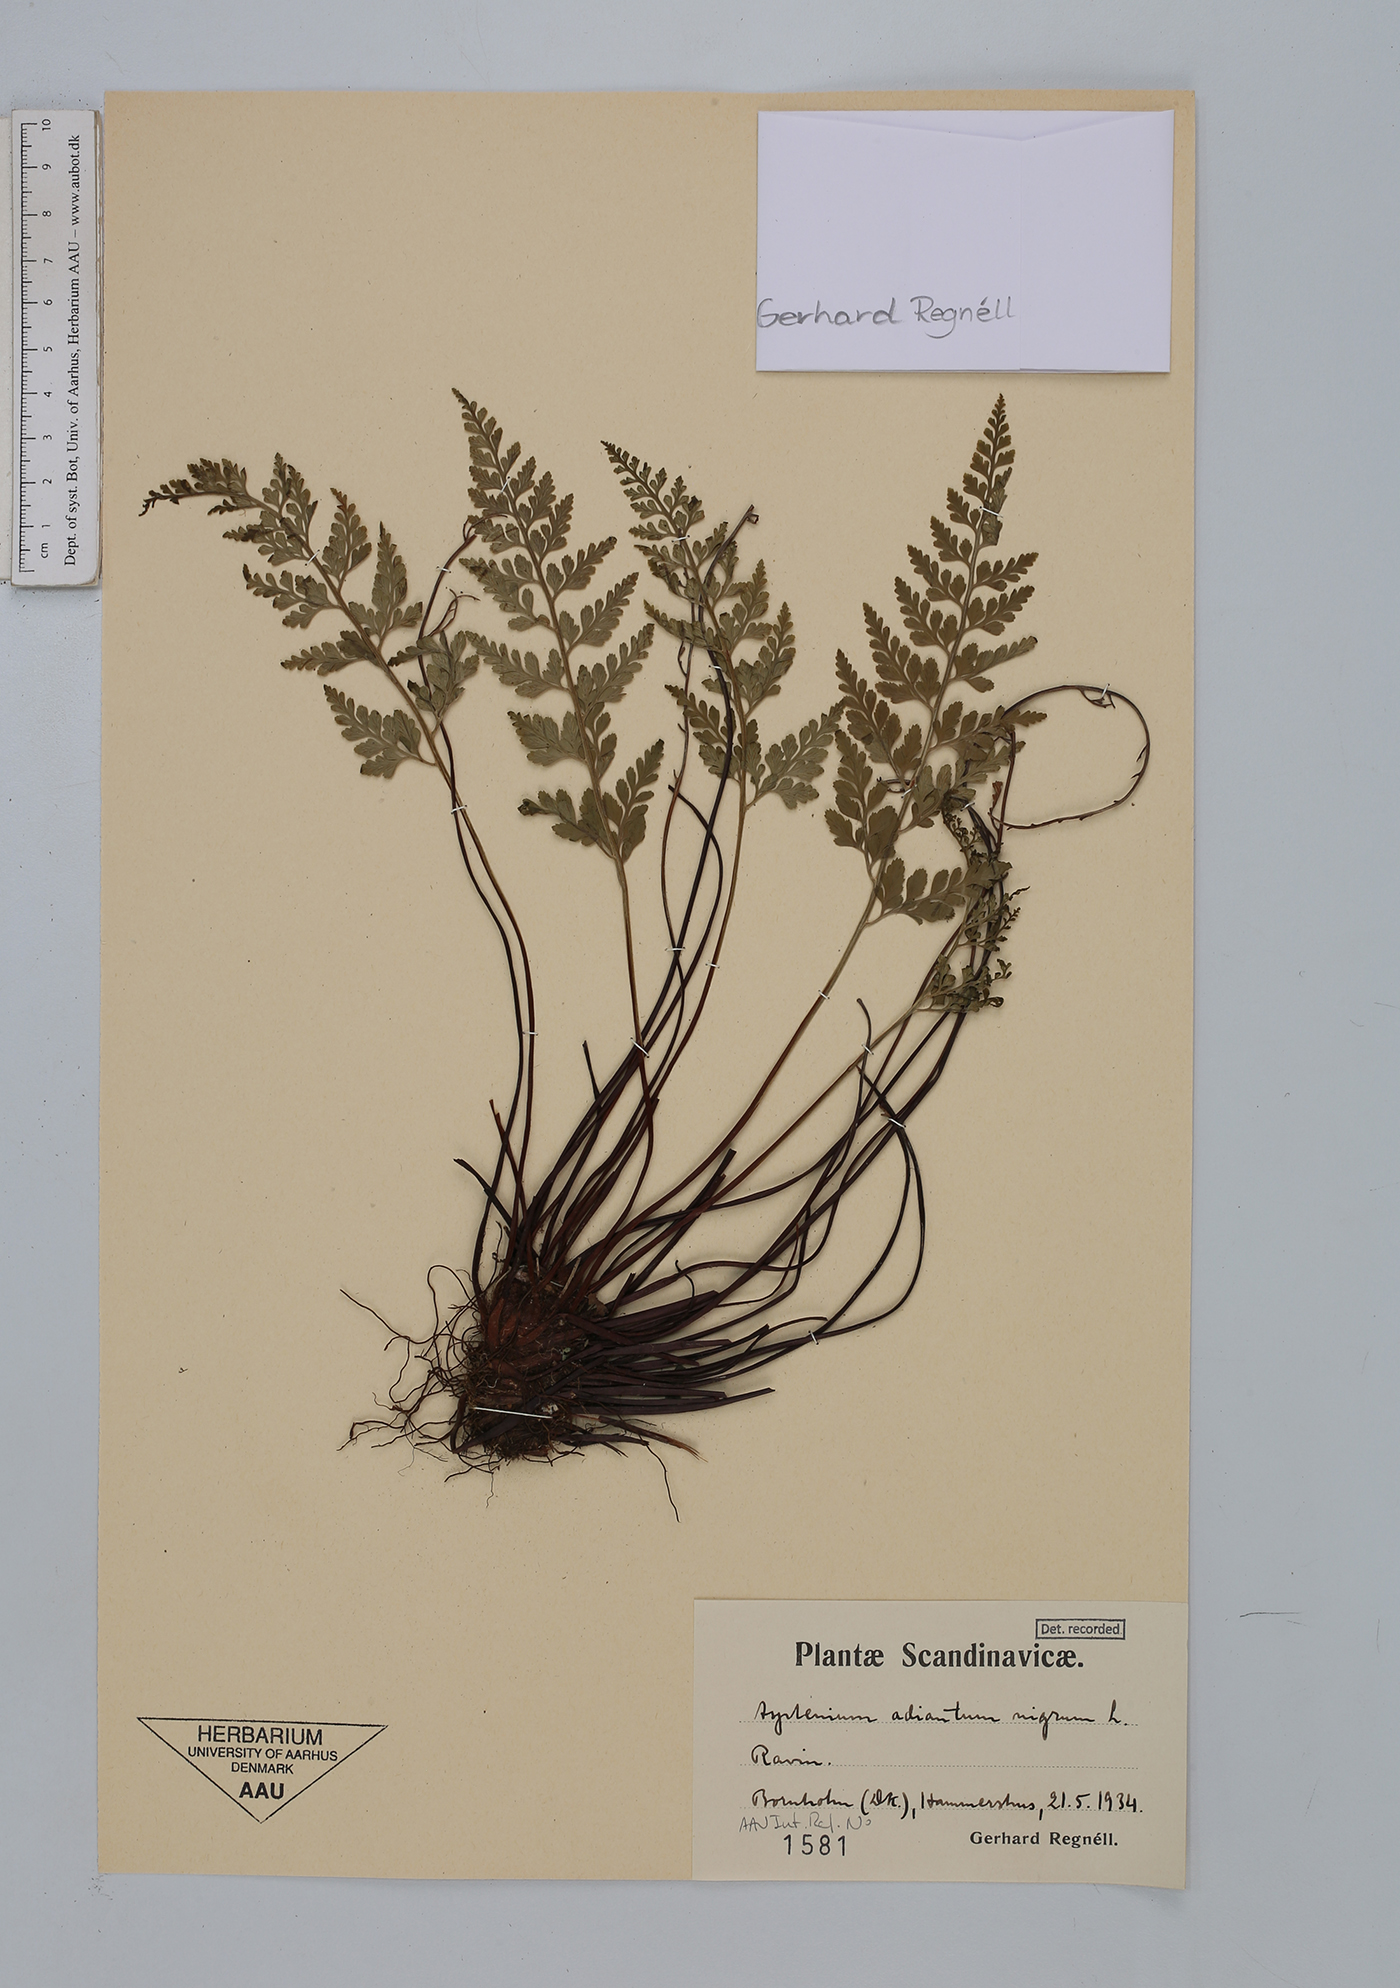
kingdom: Plantae
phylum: Tracheophyta
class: Polypodiopsida
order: Polypodiales
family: Aspleniaceae
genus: Asplenium
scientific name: Asplenium adiantum-nigrum
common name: Black spleenwort
